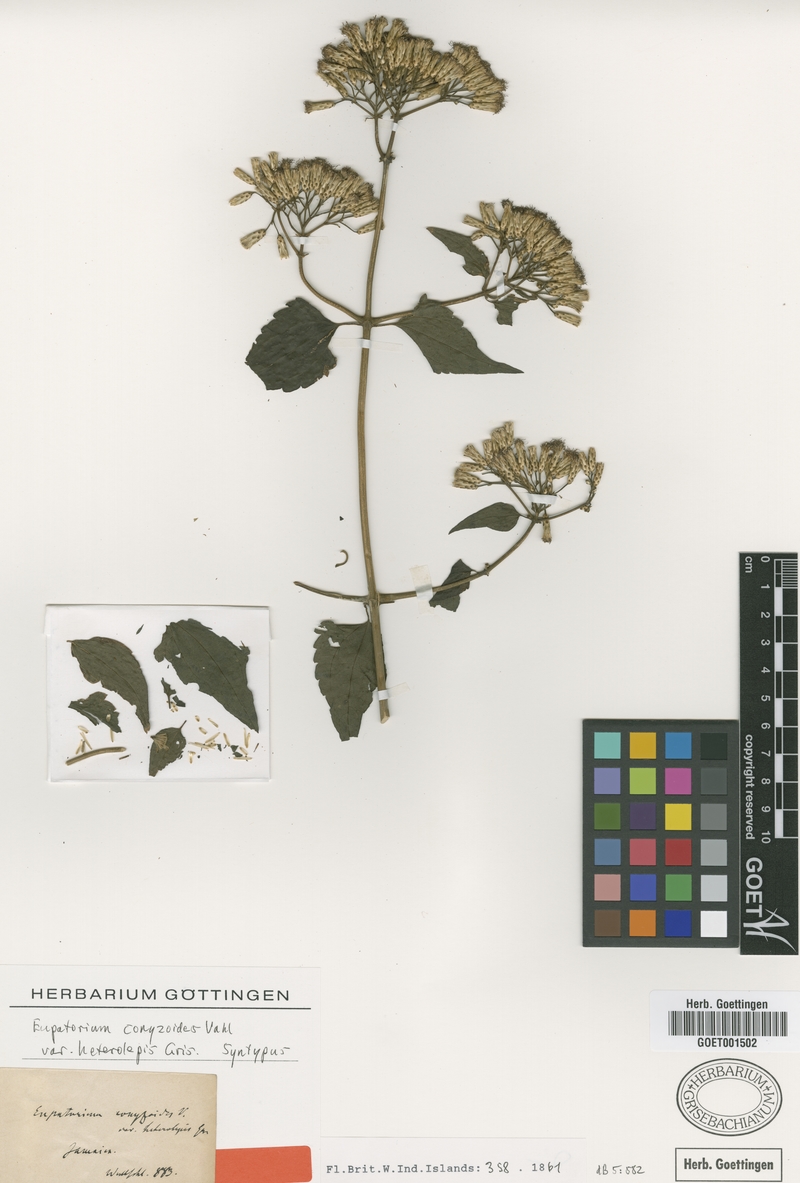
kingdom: Plantae
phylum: Tracheophyta
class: Magnoliopsida
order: Asterales
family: Asteraceae
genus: Chromolaena
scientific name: Chromolaena odorata
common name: Siamweed
